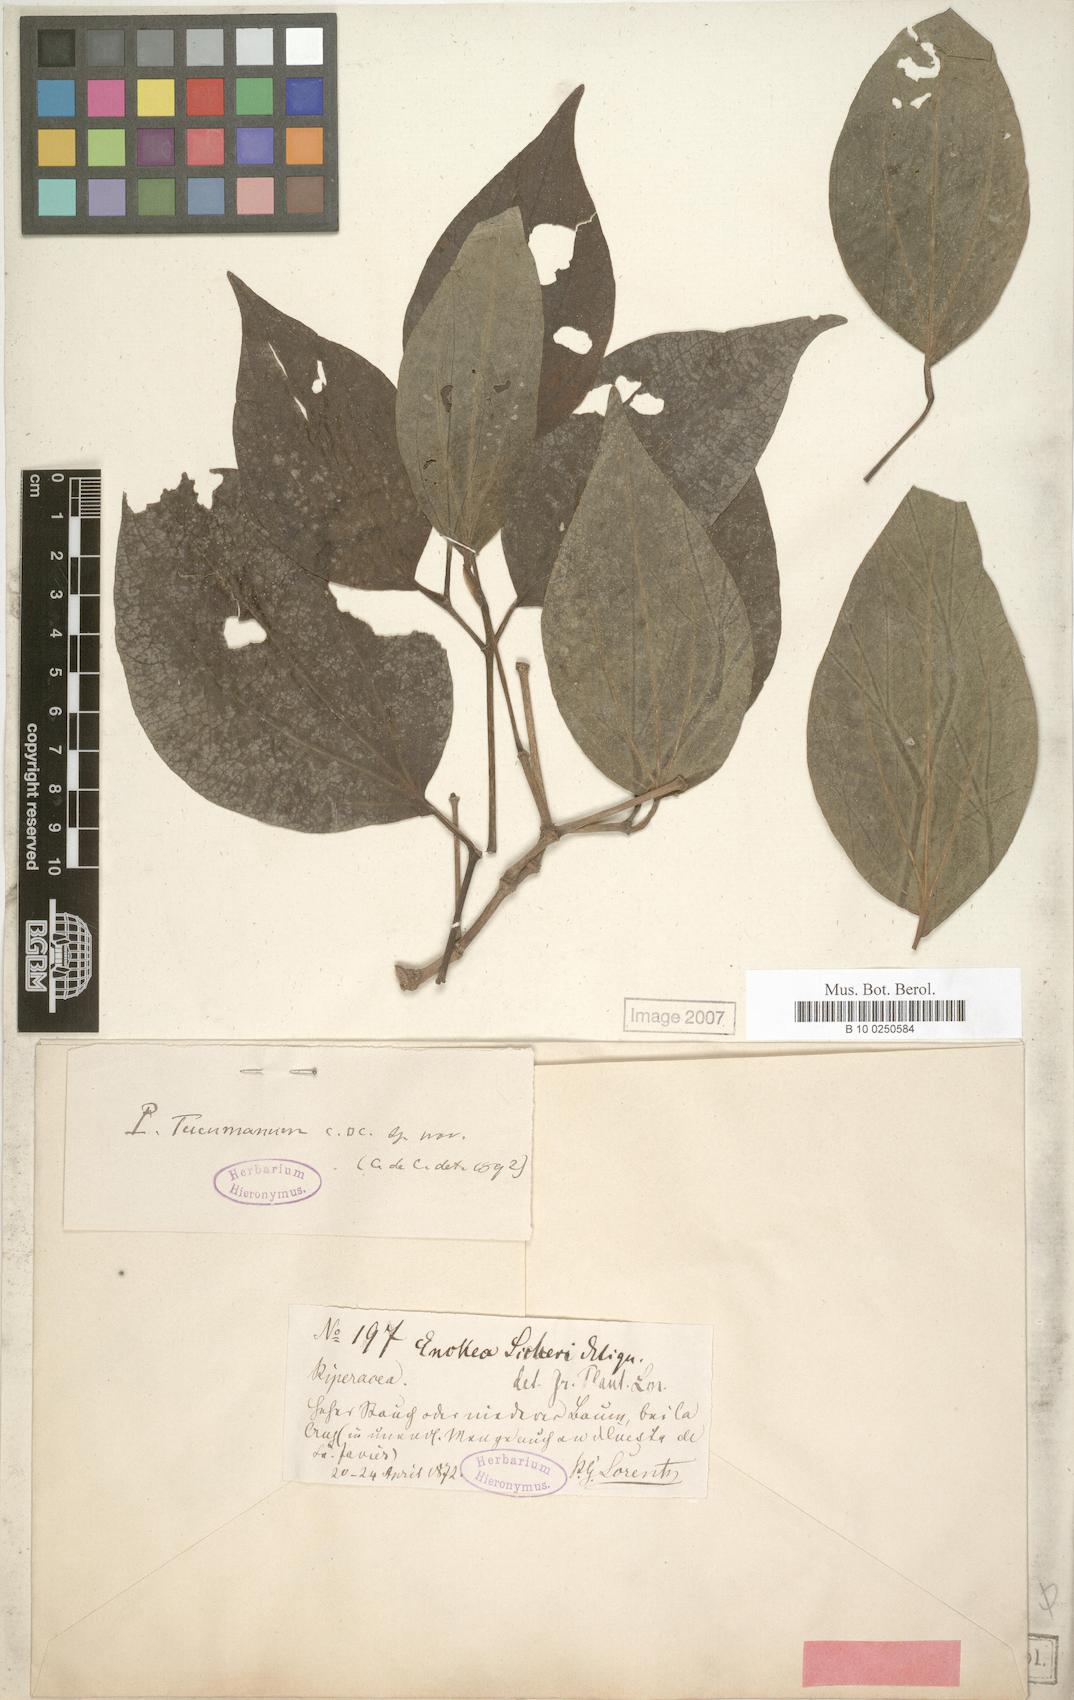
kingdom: Plantae
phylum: Tracheophyta
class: Magnoliopsida
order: Piperales
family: Piperaceae
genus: Piper
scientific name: Piper tucumanum
